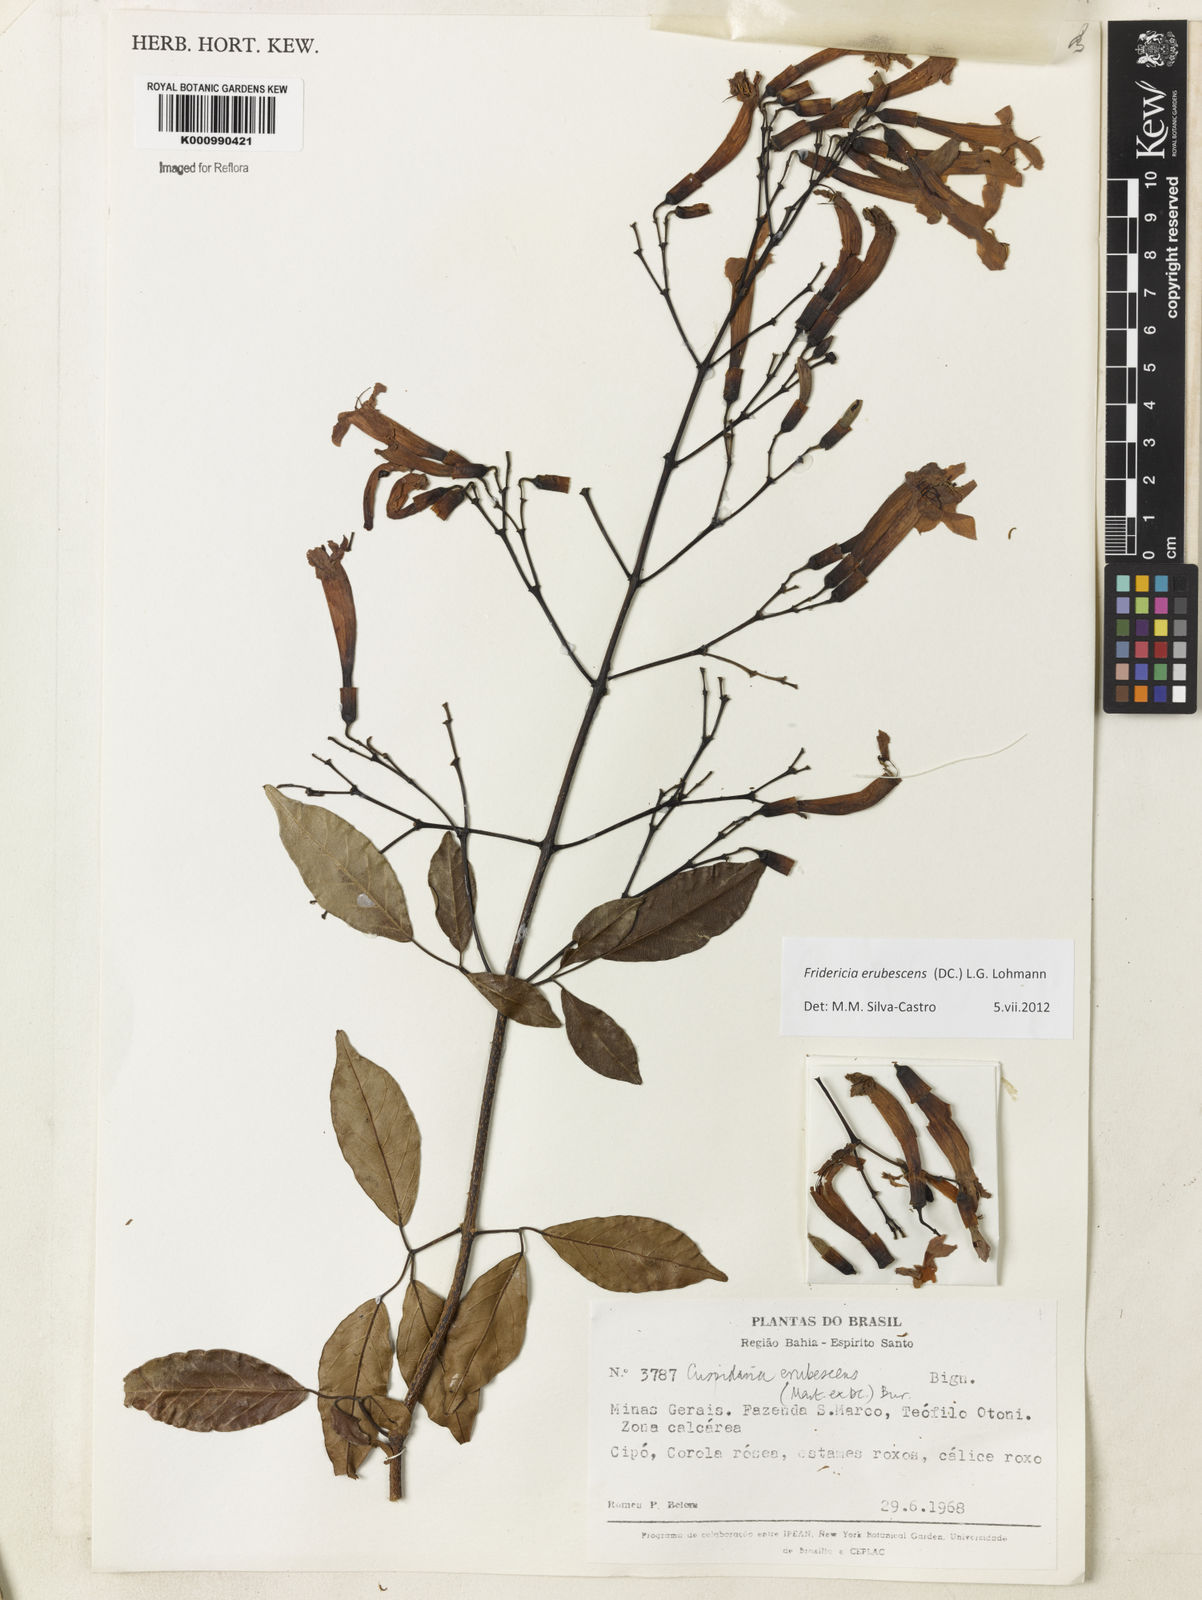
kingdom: Plantae
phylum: Tracheophyta
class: Magnoliopsida
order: Lamiales
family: Bignoniaceae
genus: Fridericia
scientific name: Fridericia erubescens
